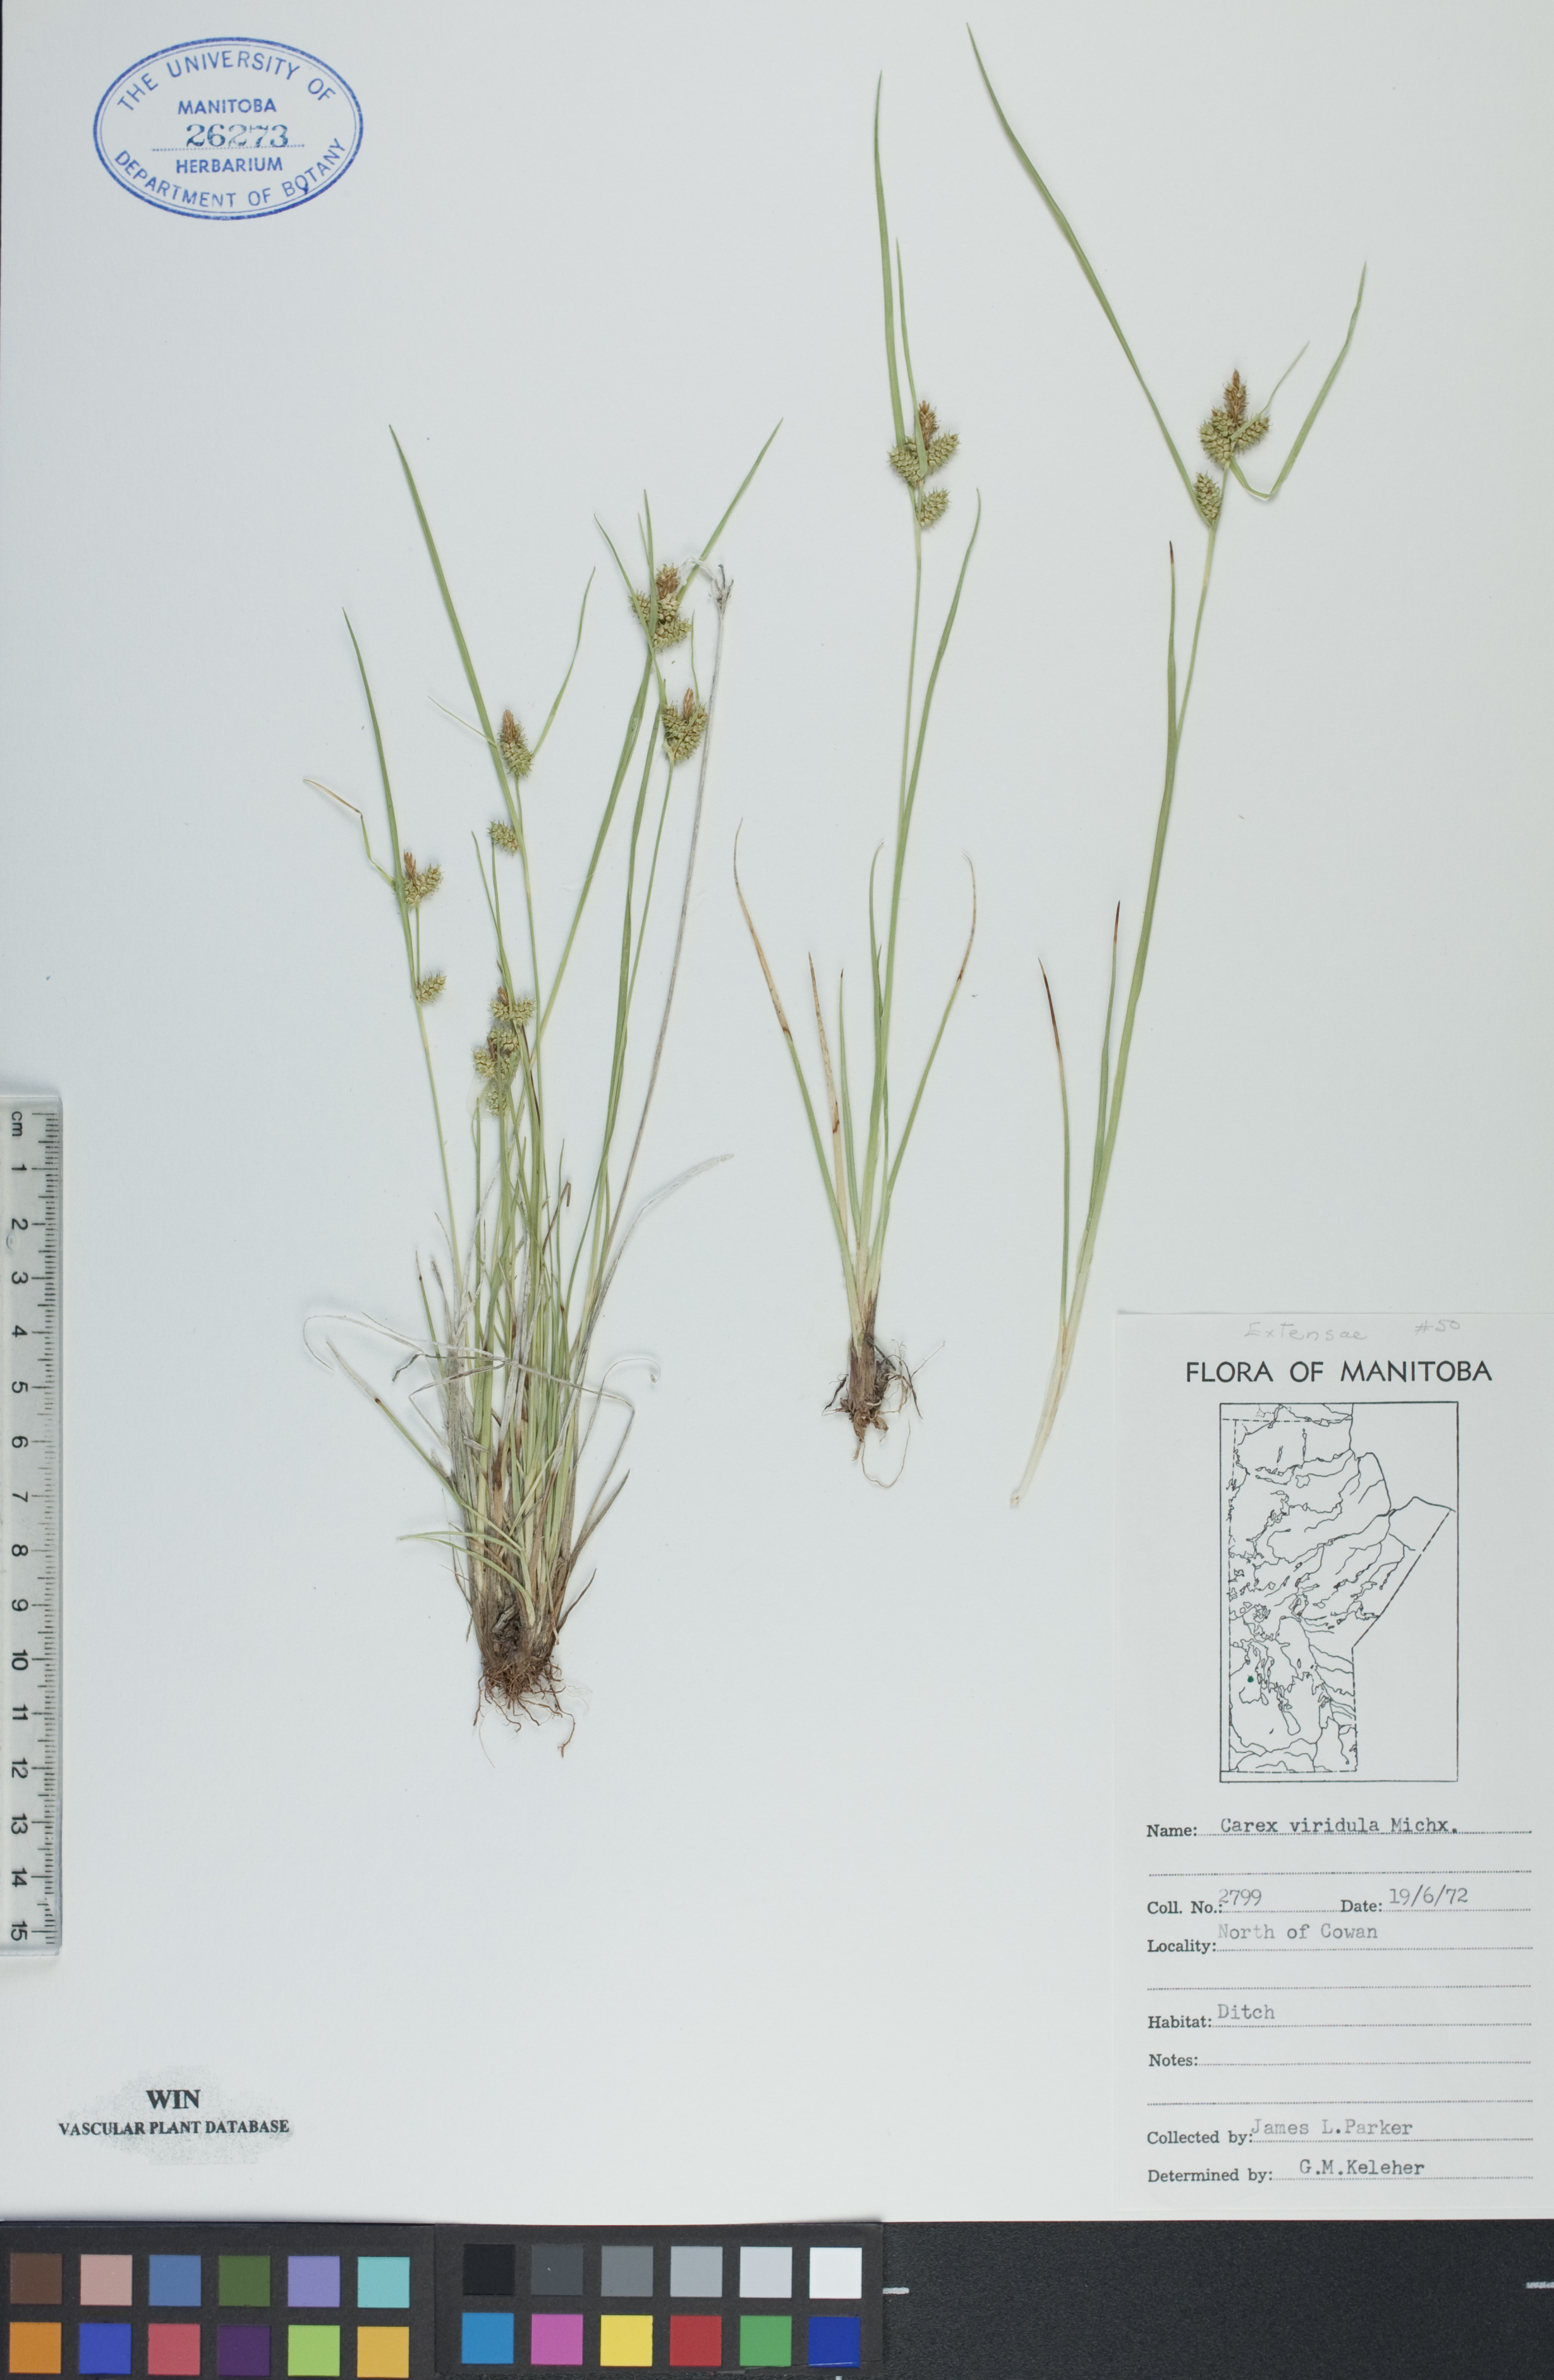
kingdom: Plantae
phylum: Tracheophyta
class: Liliopsida
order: Poales
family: Cyperaceae
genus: Carex
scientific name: Carex oederi
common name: Common & small-fruited yellow-sedge
